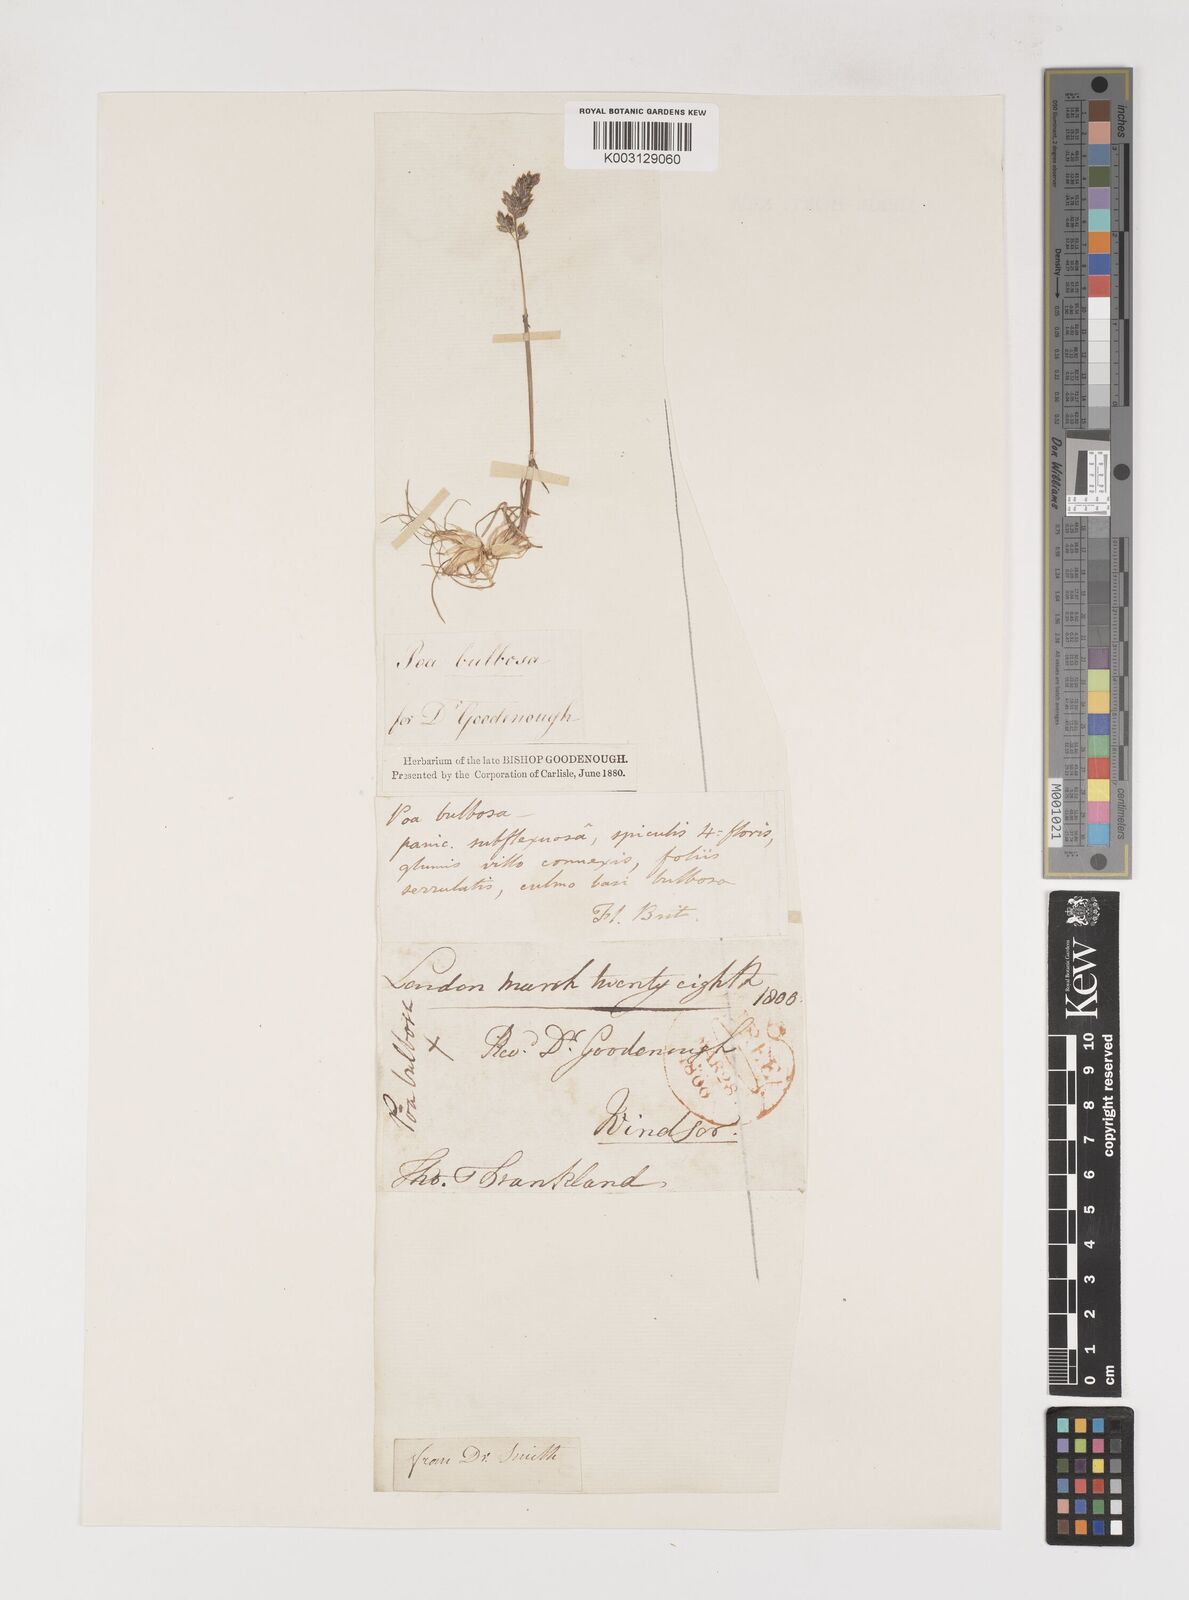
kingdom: Plantae
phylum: Tracheophyta
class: Liliopsida
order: Poales
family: Poaceae
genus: Poa
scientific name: Poa
